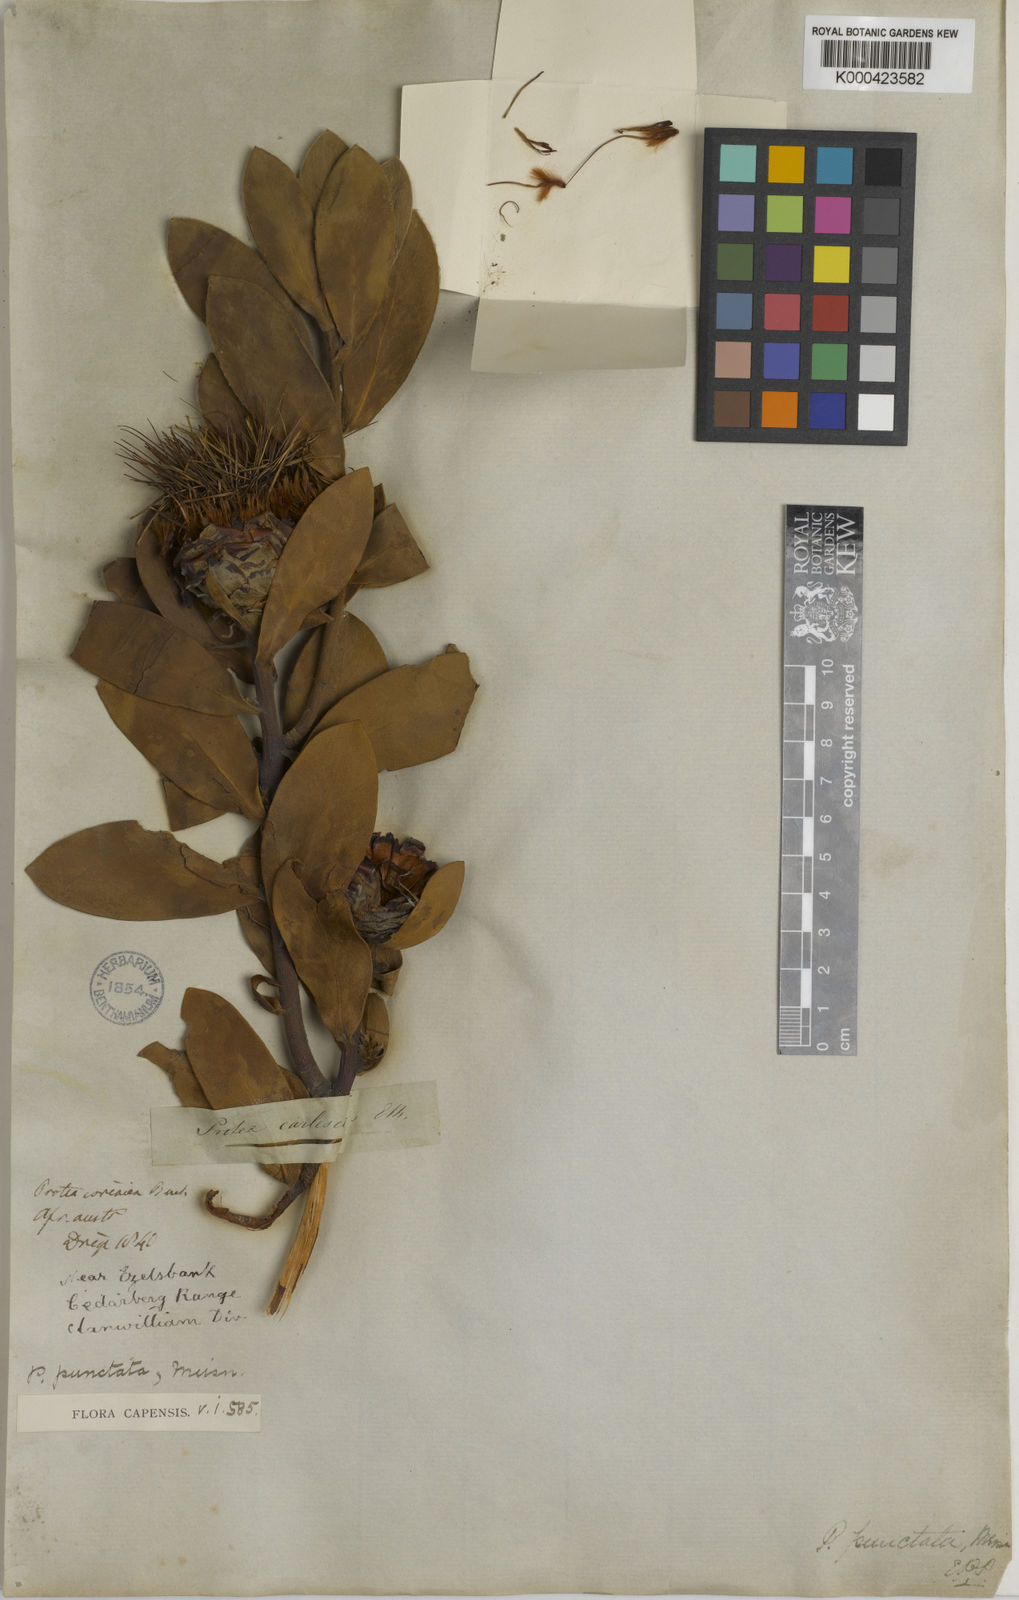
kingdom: Plantae
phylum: Tracheophyta
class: Magnoliopsida
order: Proteales
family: Proteaceae
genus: Protea
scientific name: Protea punctata
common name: Water sugarbush
